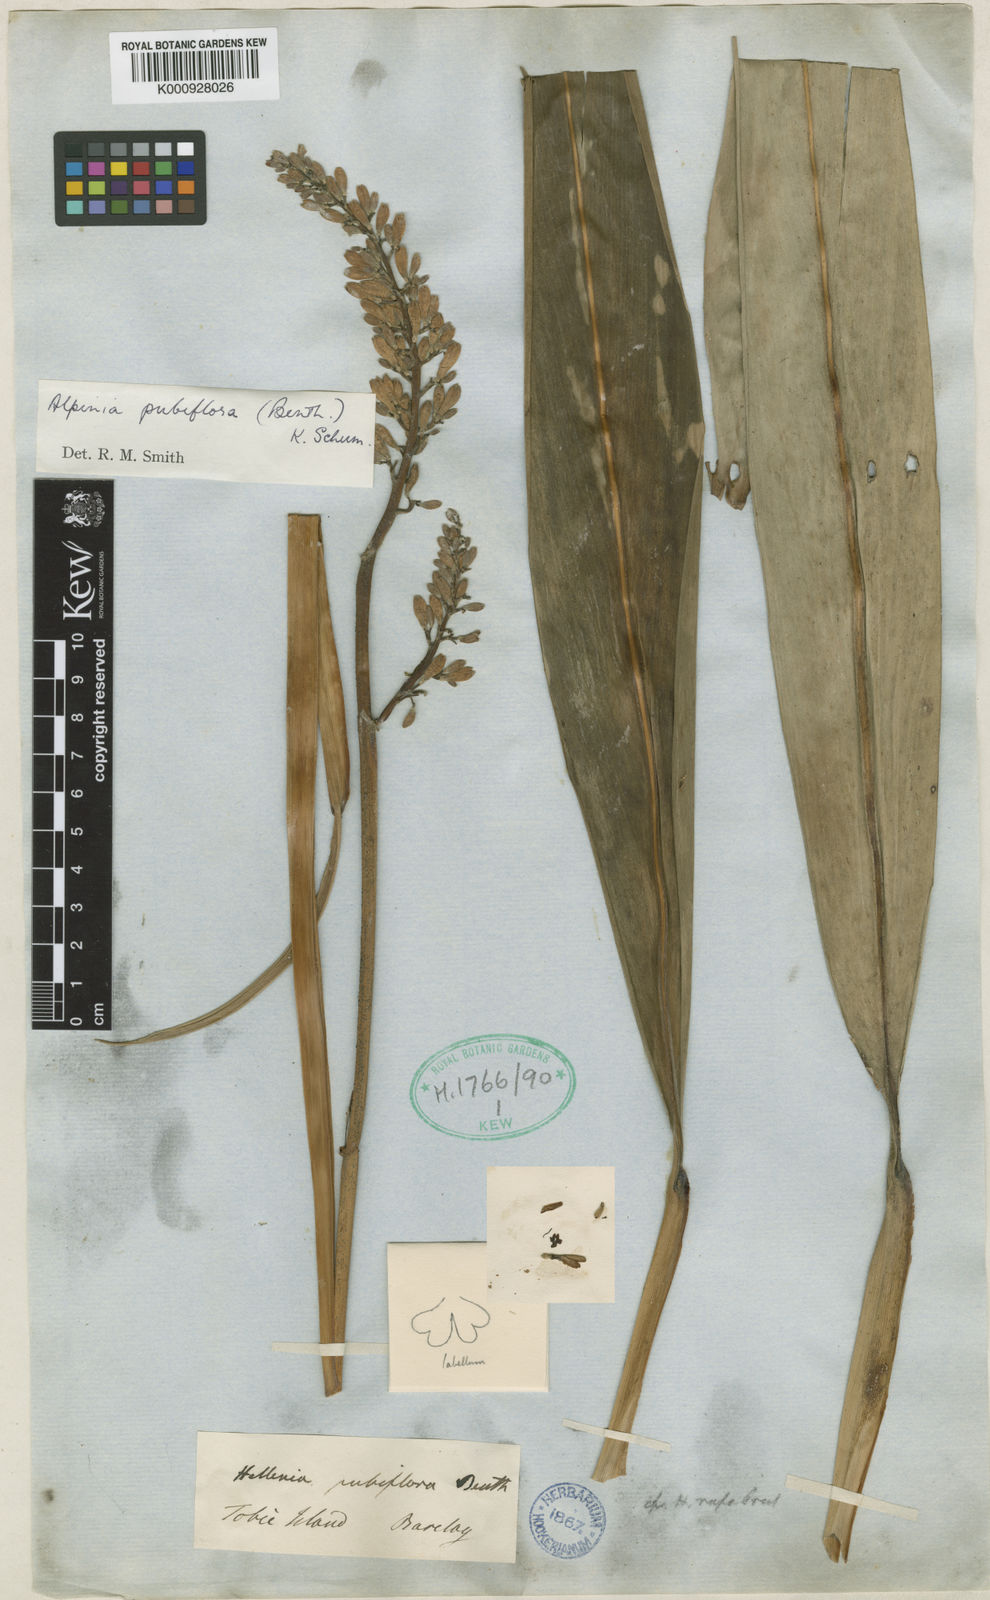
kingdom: Plantae
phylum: Tracheophyta
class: Liliopsida
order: Zingiberales
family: Zingiberaceae
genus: Alpinia
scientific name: Alpinia pubiflora
